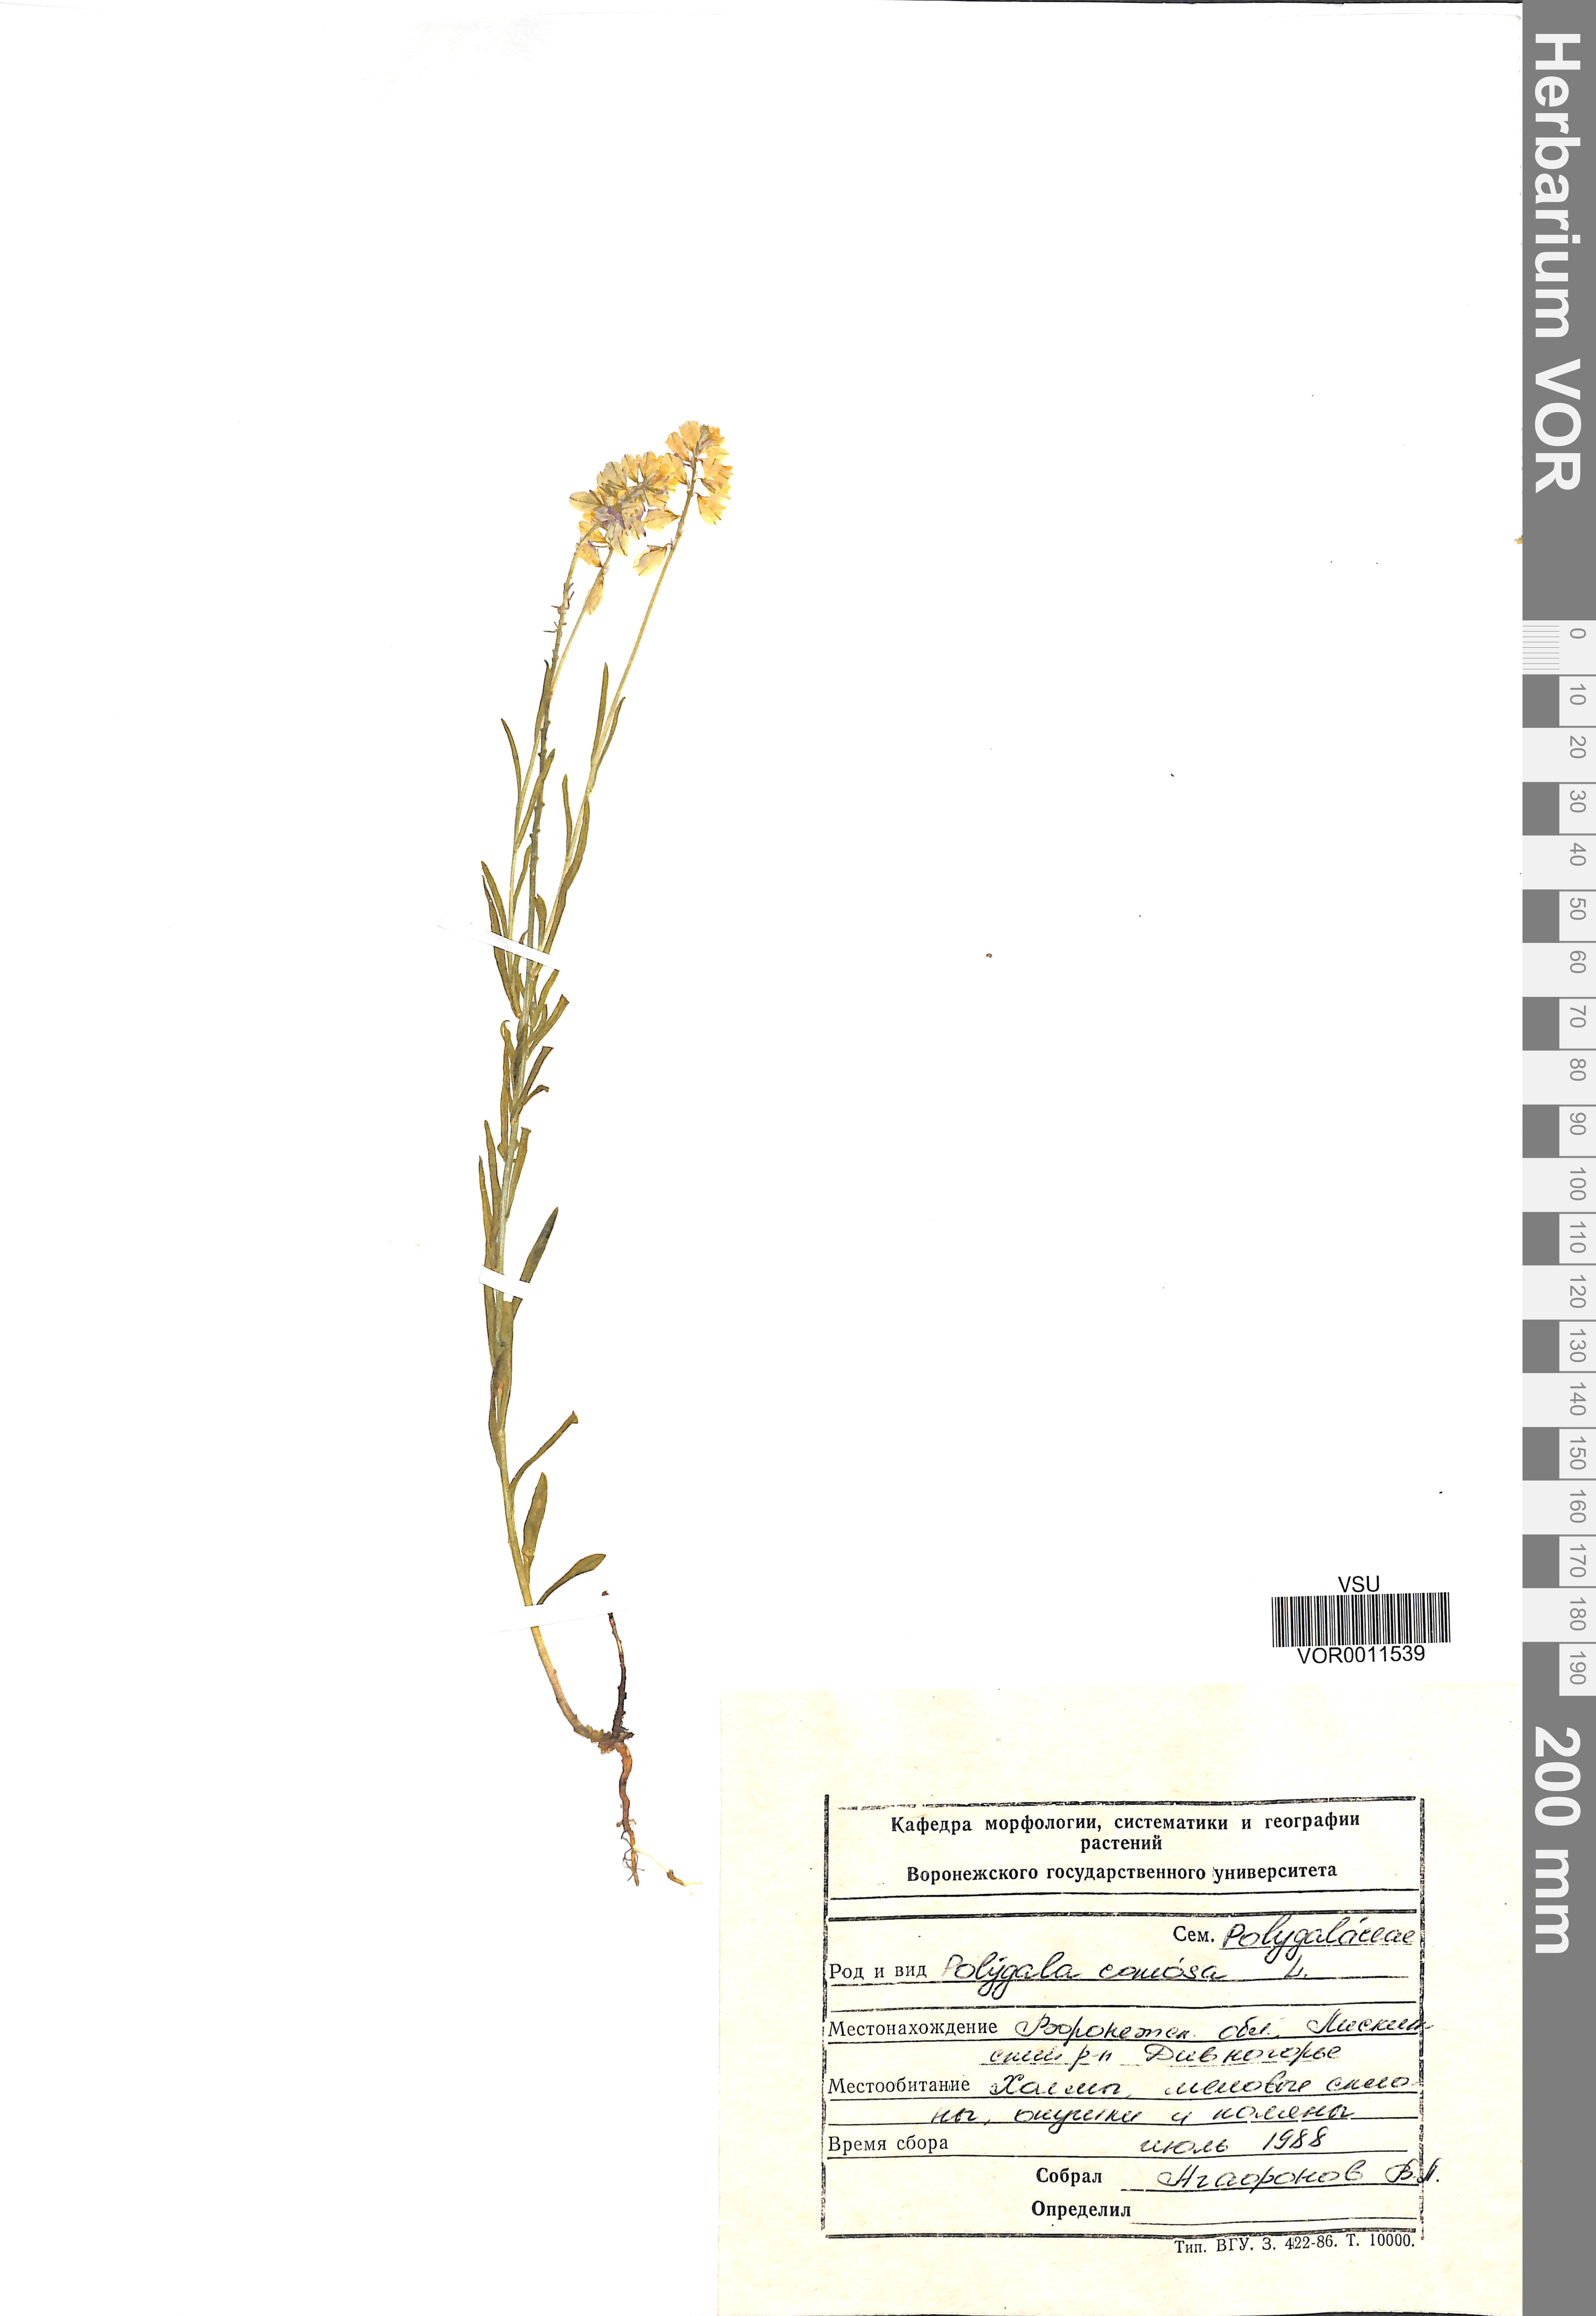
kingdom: Plantae
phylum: Tracheophyta
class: Magnoliopsida
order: Fabales
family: Polygalaceae
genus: Polygala
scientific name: Polygala comosa
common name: Tufted milkwort
